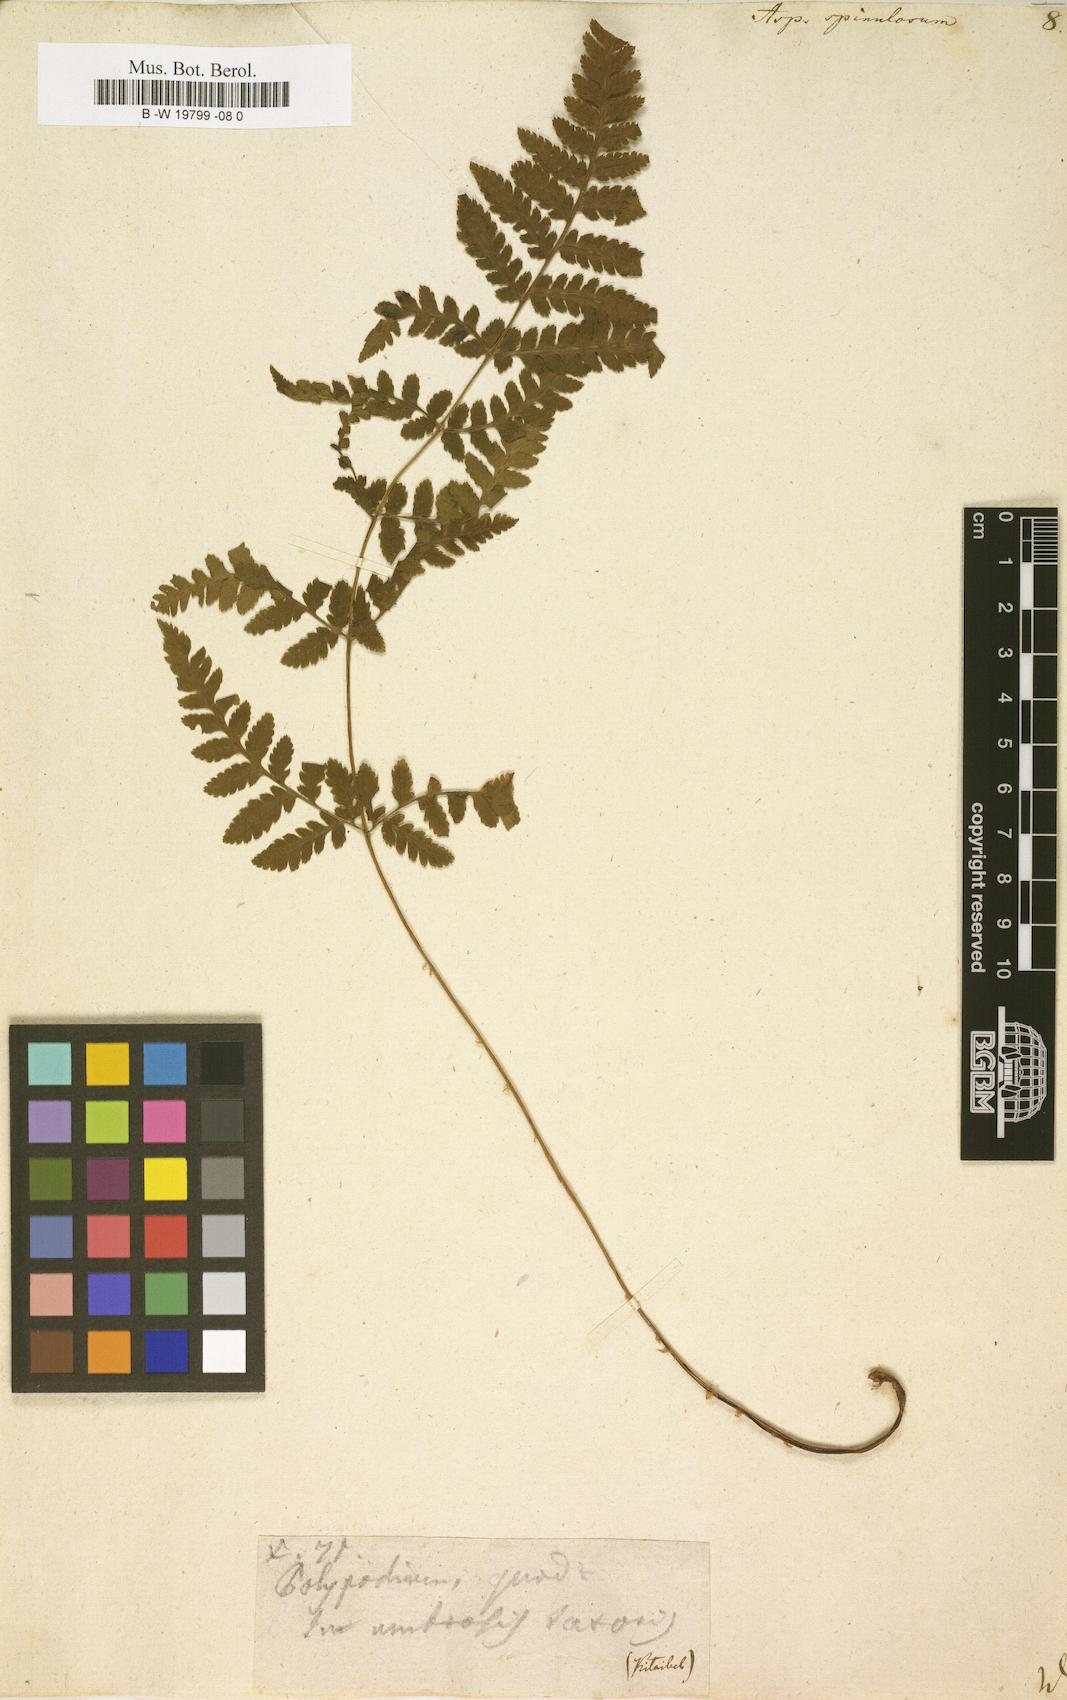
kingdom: Plantae
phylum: Tracheophyta
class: Polypodiopsida
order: Polypodiales
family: Dryopteridaceae
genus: Dryopteris
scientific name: Dryopteris
